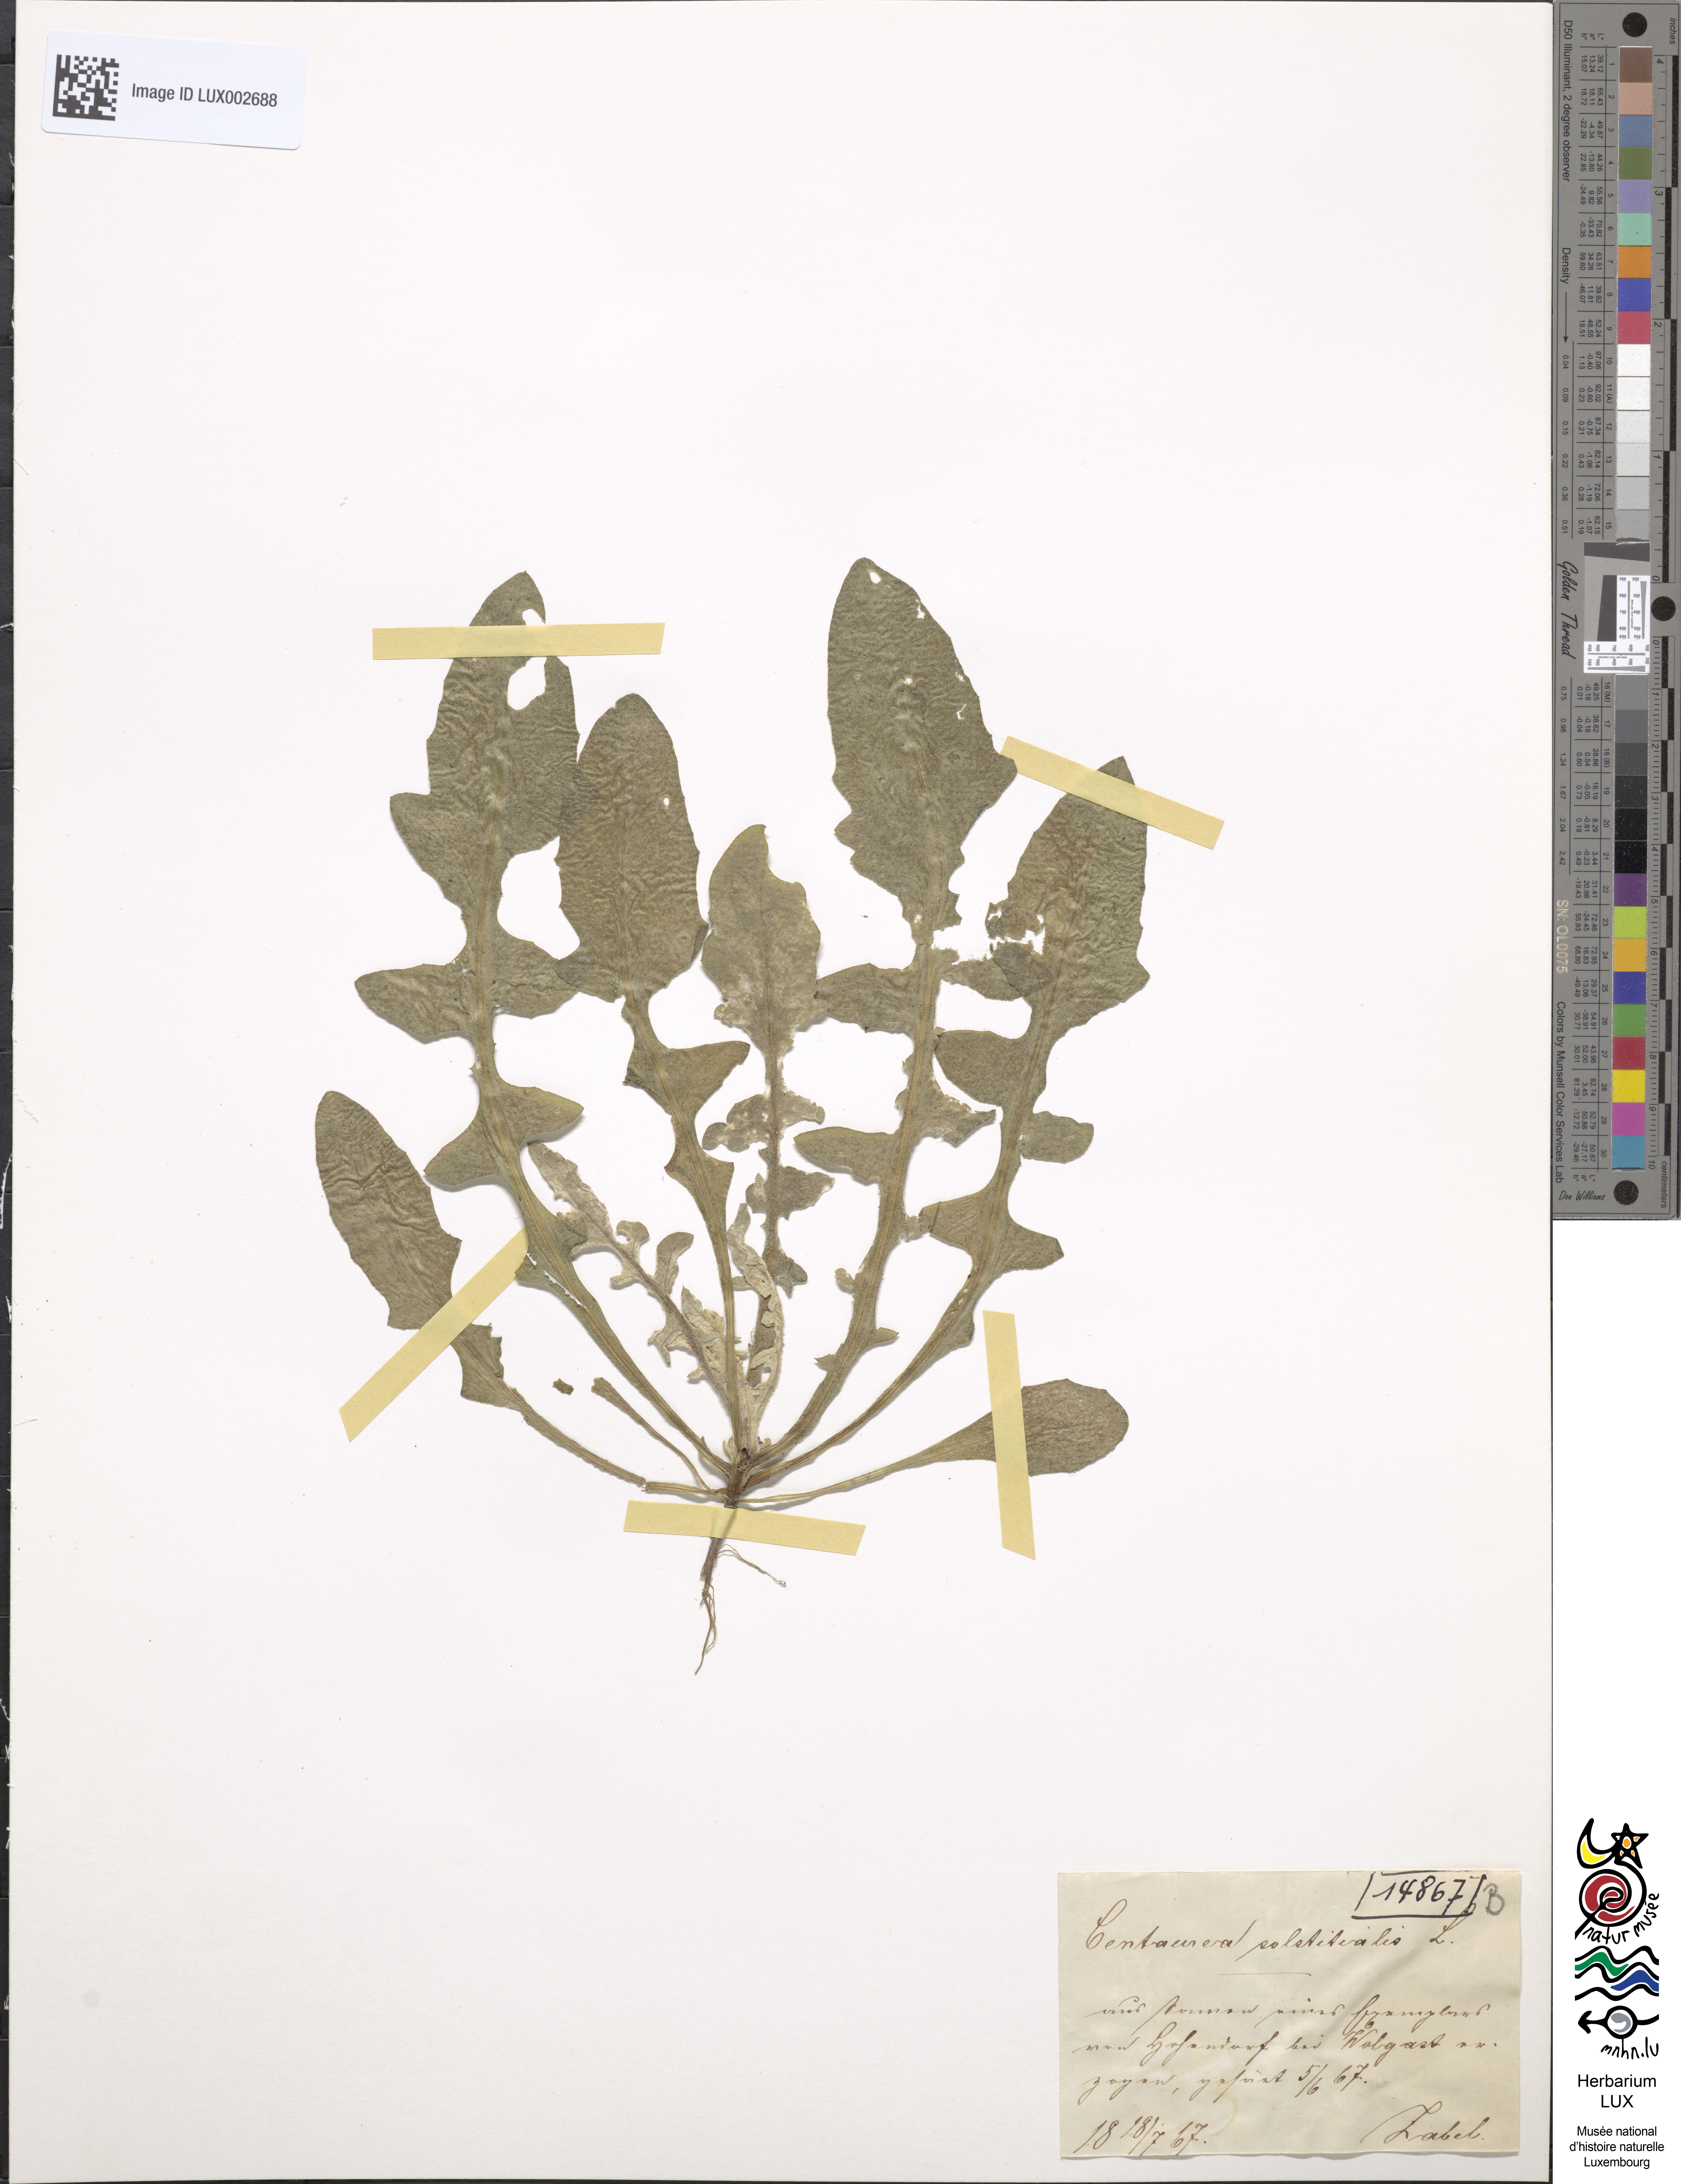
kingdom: Plantae
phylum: Tracheophyta
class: Magnoliopsida
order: Asterales
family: Asteraceae
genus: Centaurea
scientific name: Centaurea solstitialis
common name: Yellow star-thistle
